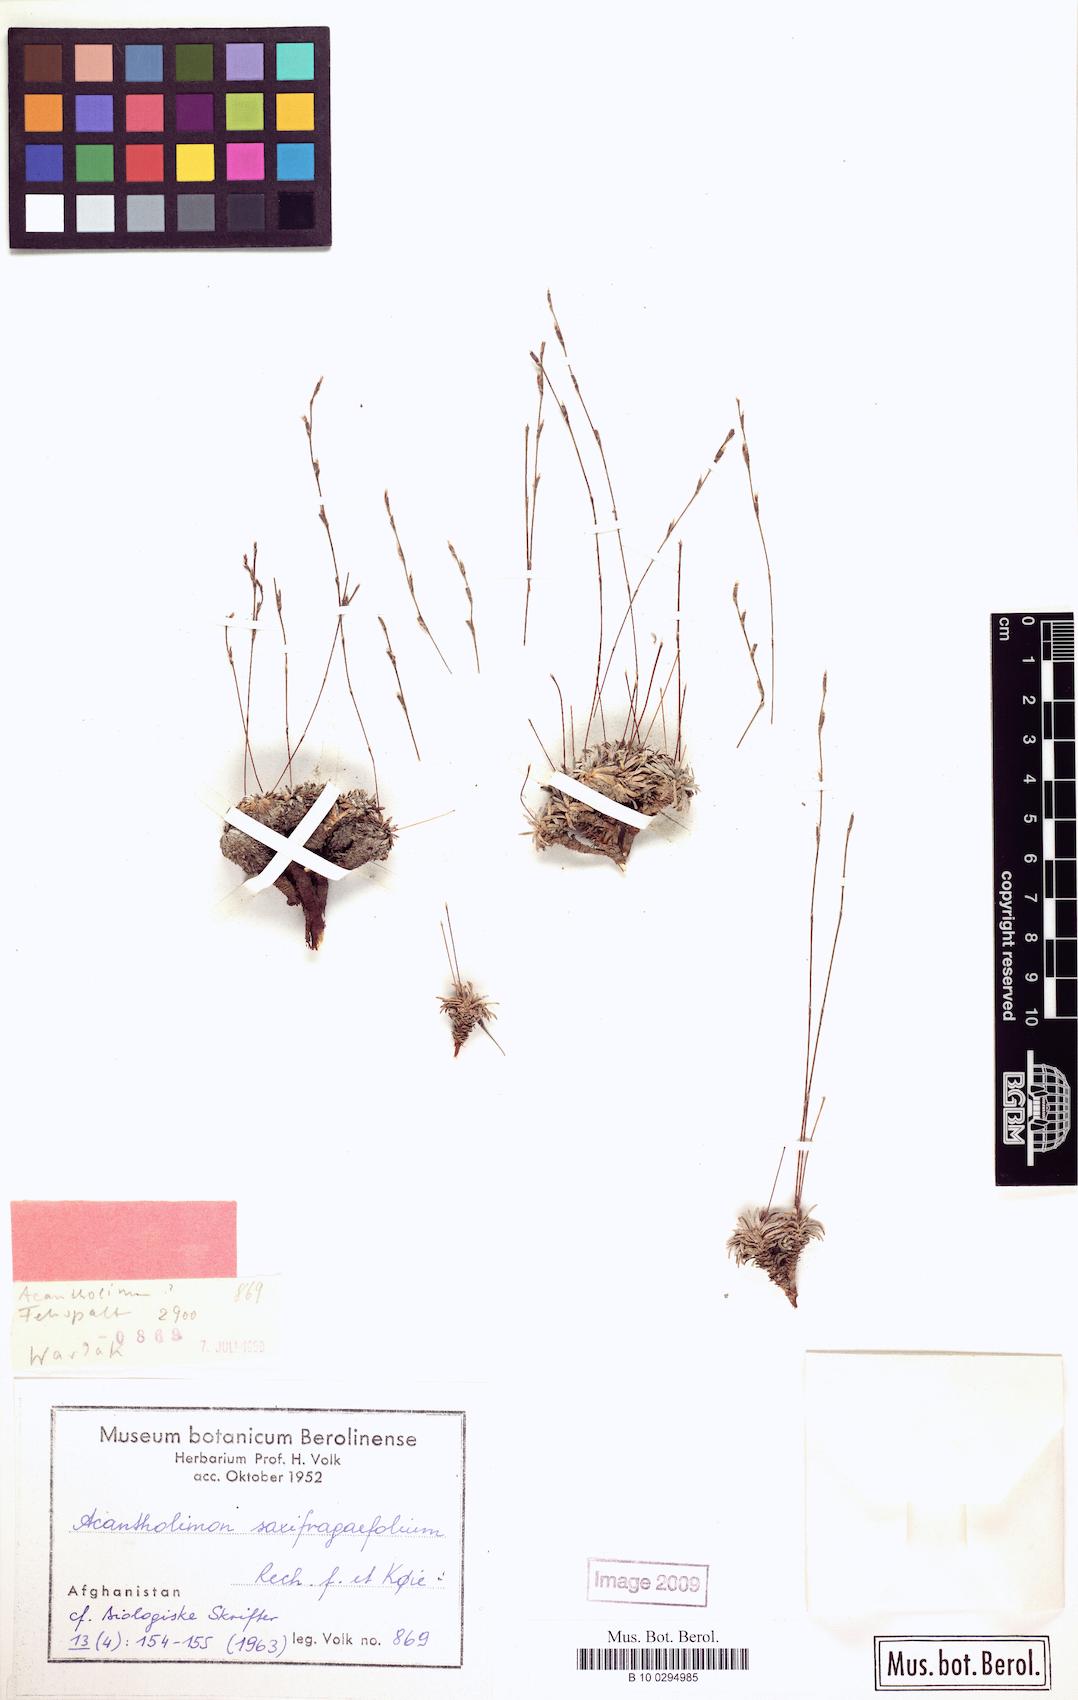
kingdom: Plantae
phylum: Tracheophyta
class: Magnoliopsida
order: Caryophyllales
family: Plumbaginaceae
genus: Neogontscharovia
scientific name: Neogontscharovia saxifragifolia
